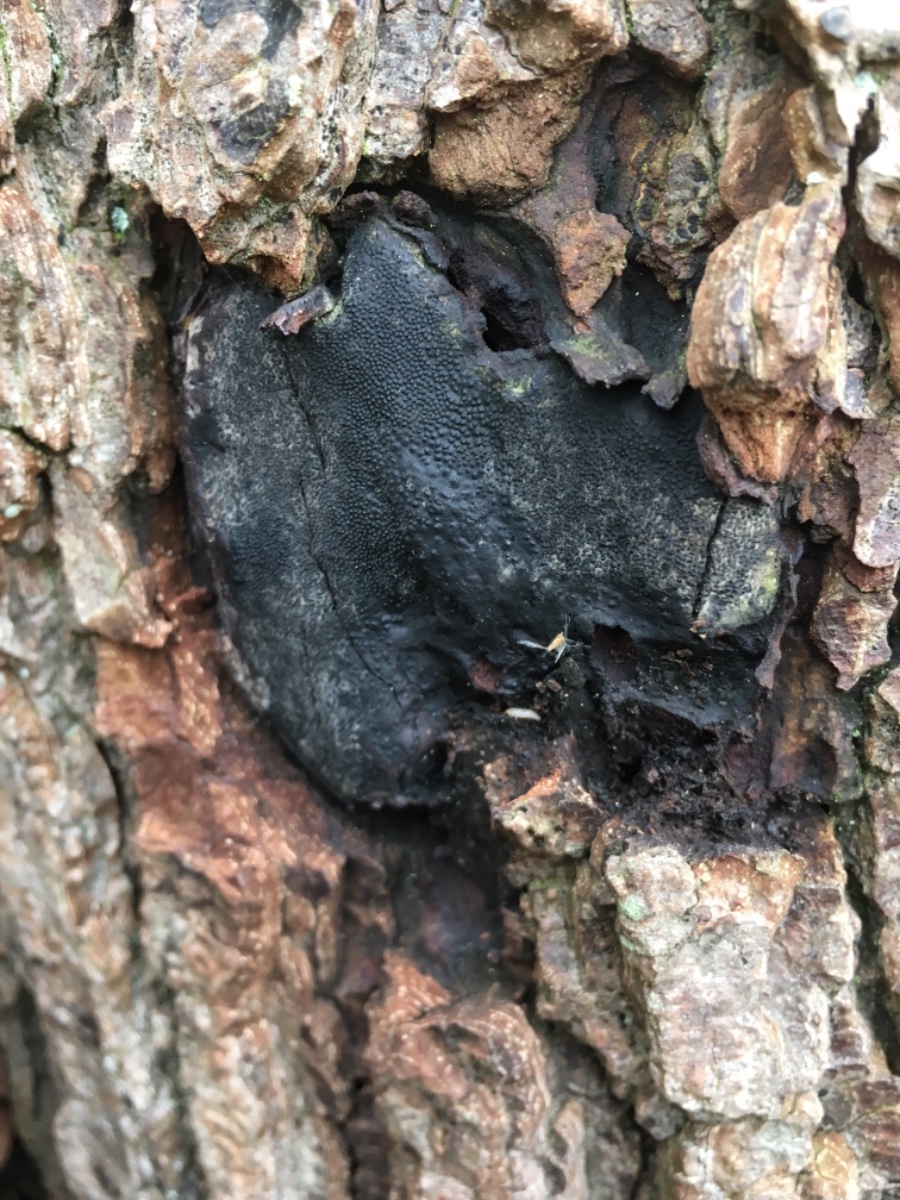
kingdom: Fungi
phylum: Ascomycota
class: Sordariomycetes
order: Boliniales
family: Boliniaceae
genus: Camarops
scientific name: Camarops polysperma
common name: elle-kulsnegl
